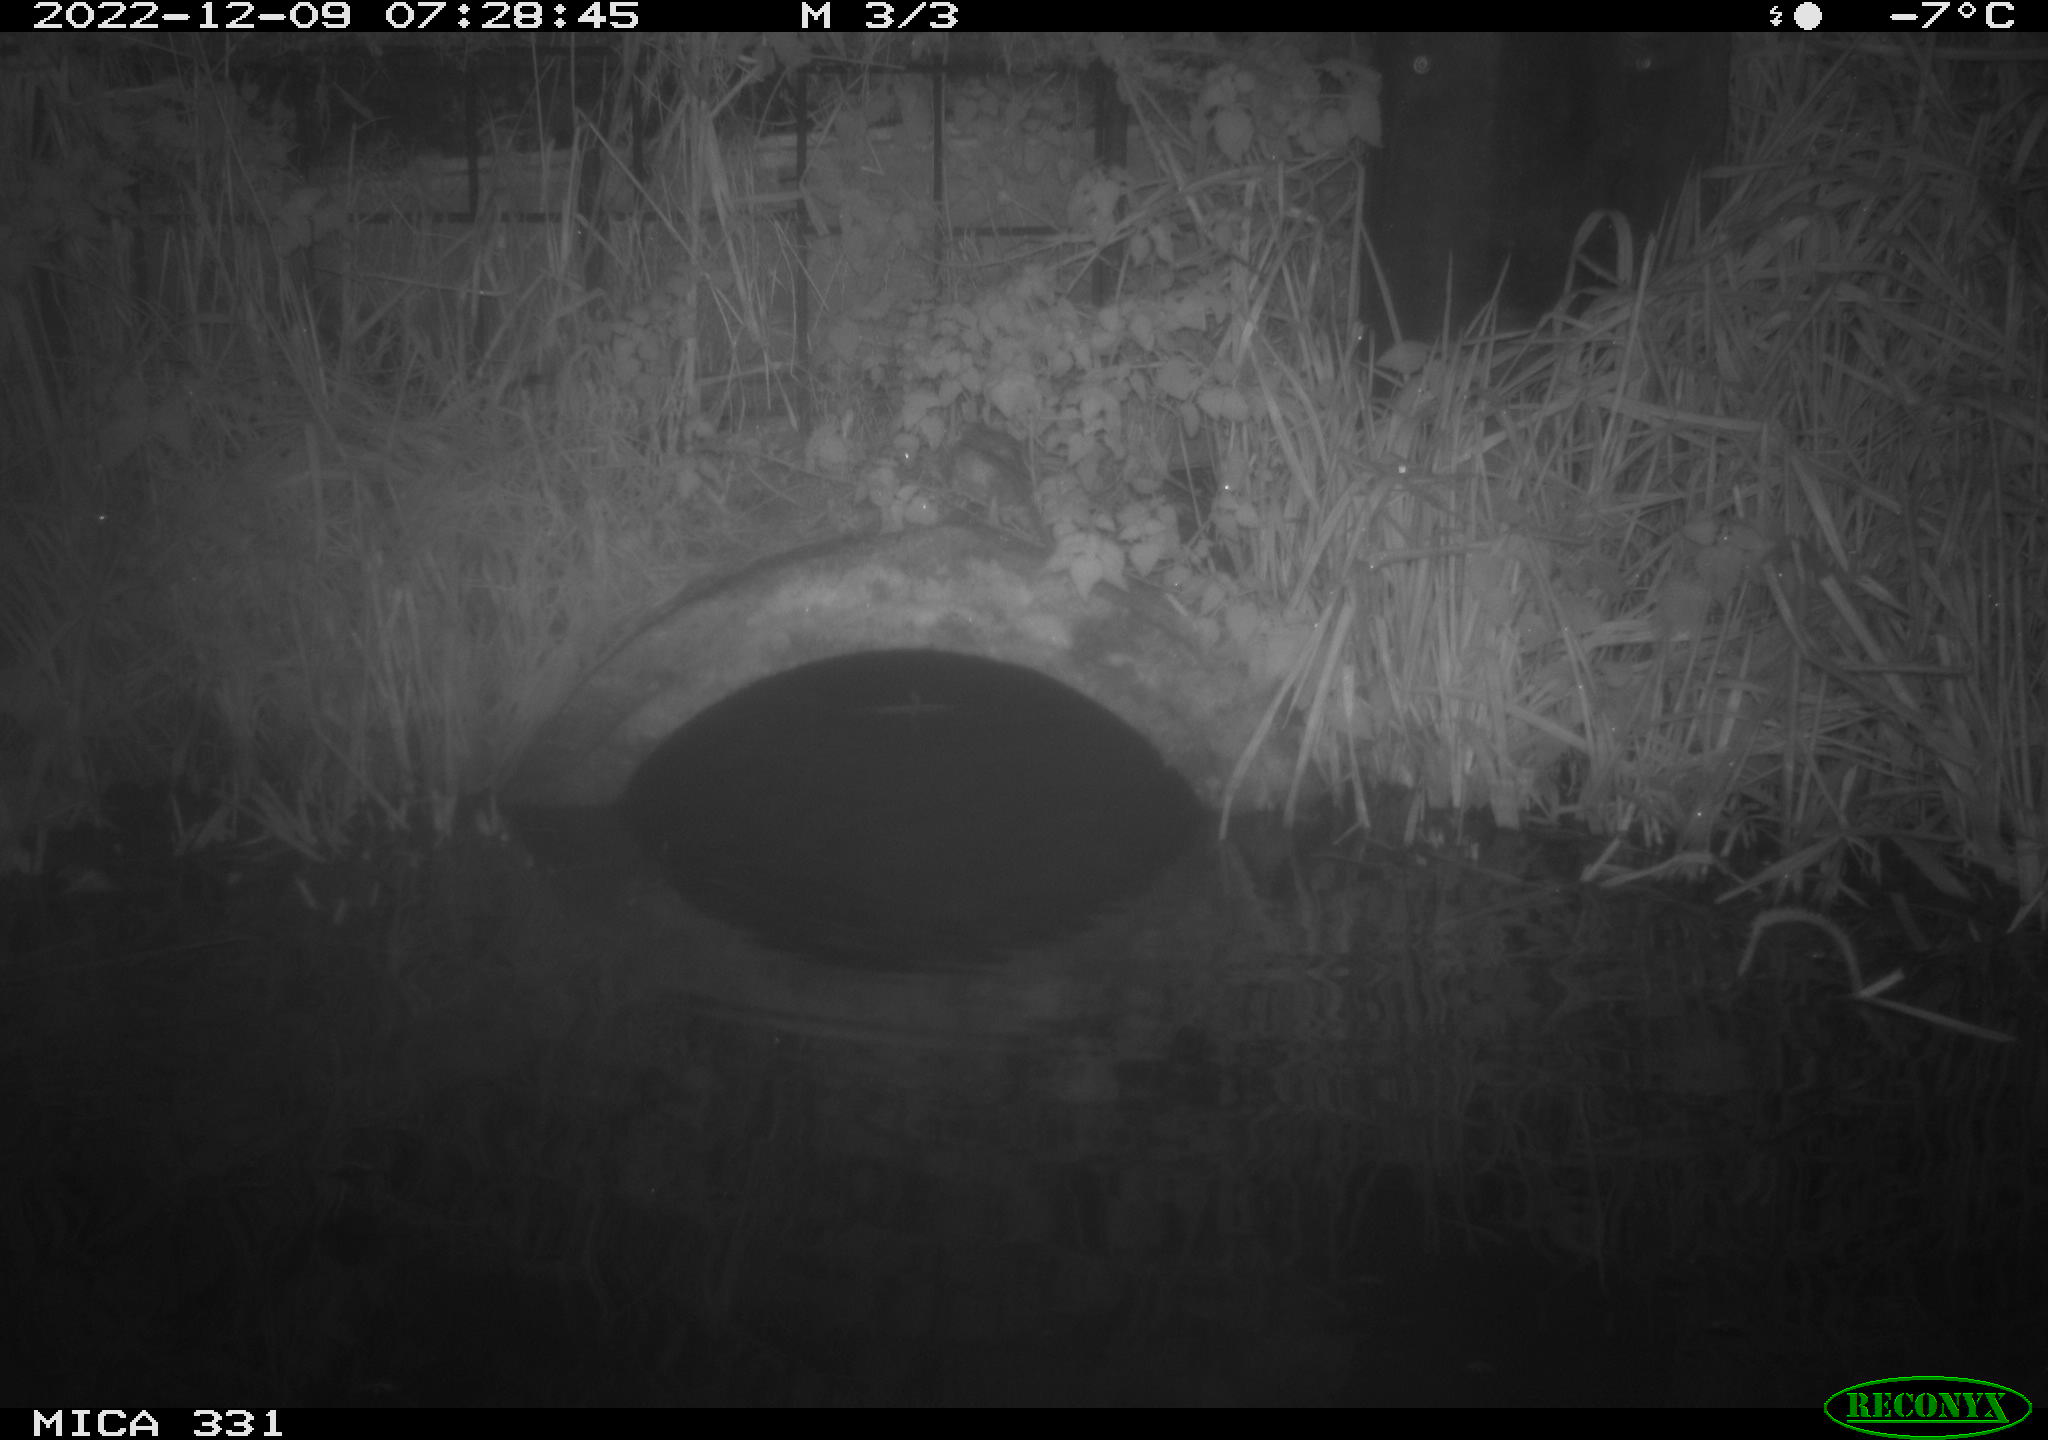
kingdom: Animalia
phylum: Chordata
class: Mammalia
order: Rodentia
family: Muridae
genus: Rattus
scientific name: Rattus norvegicus
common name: Brown rat
